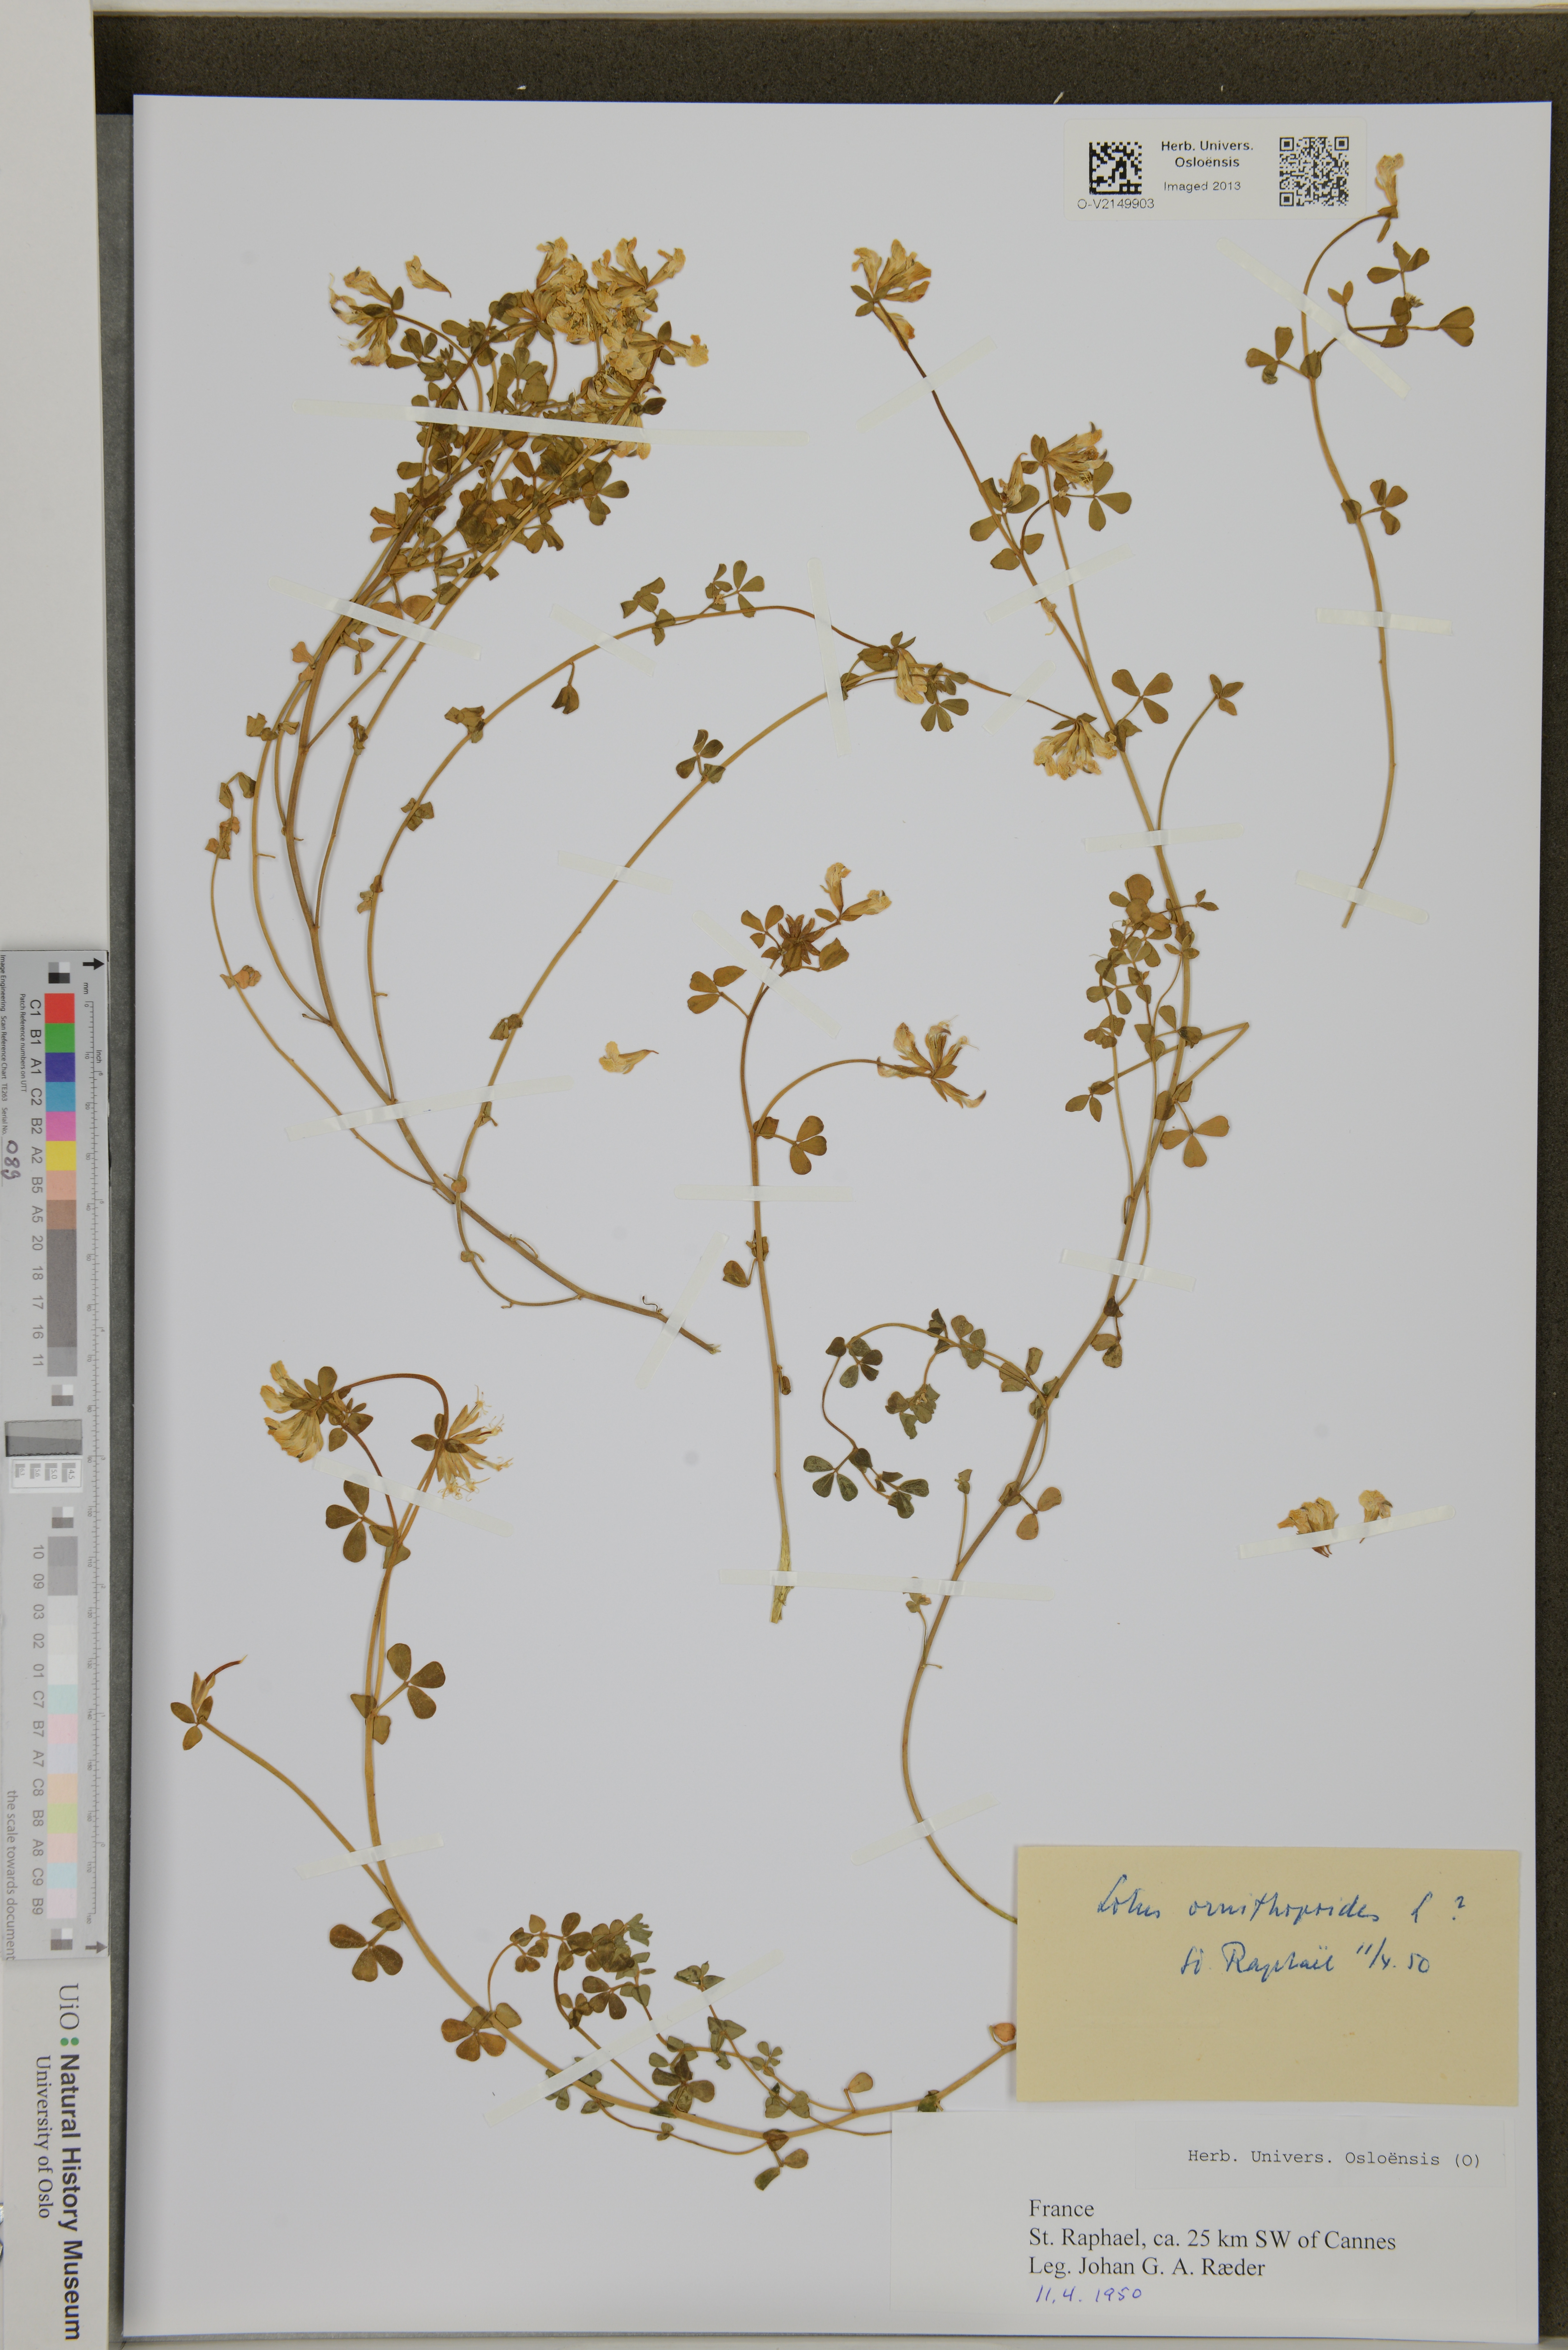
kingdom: Plantae
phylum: Tracheophyta
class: Magnoliopsida
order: Fabales
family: Fabaceae
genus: Lotus
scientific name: Lotus ornithopodioides
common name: Southern bird's-foot trefoil
